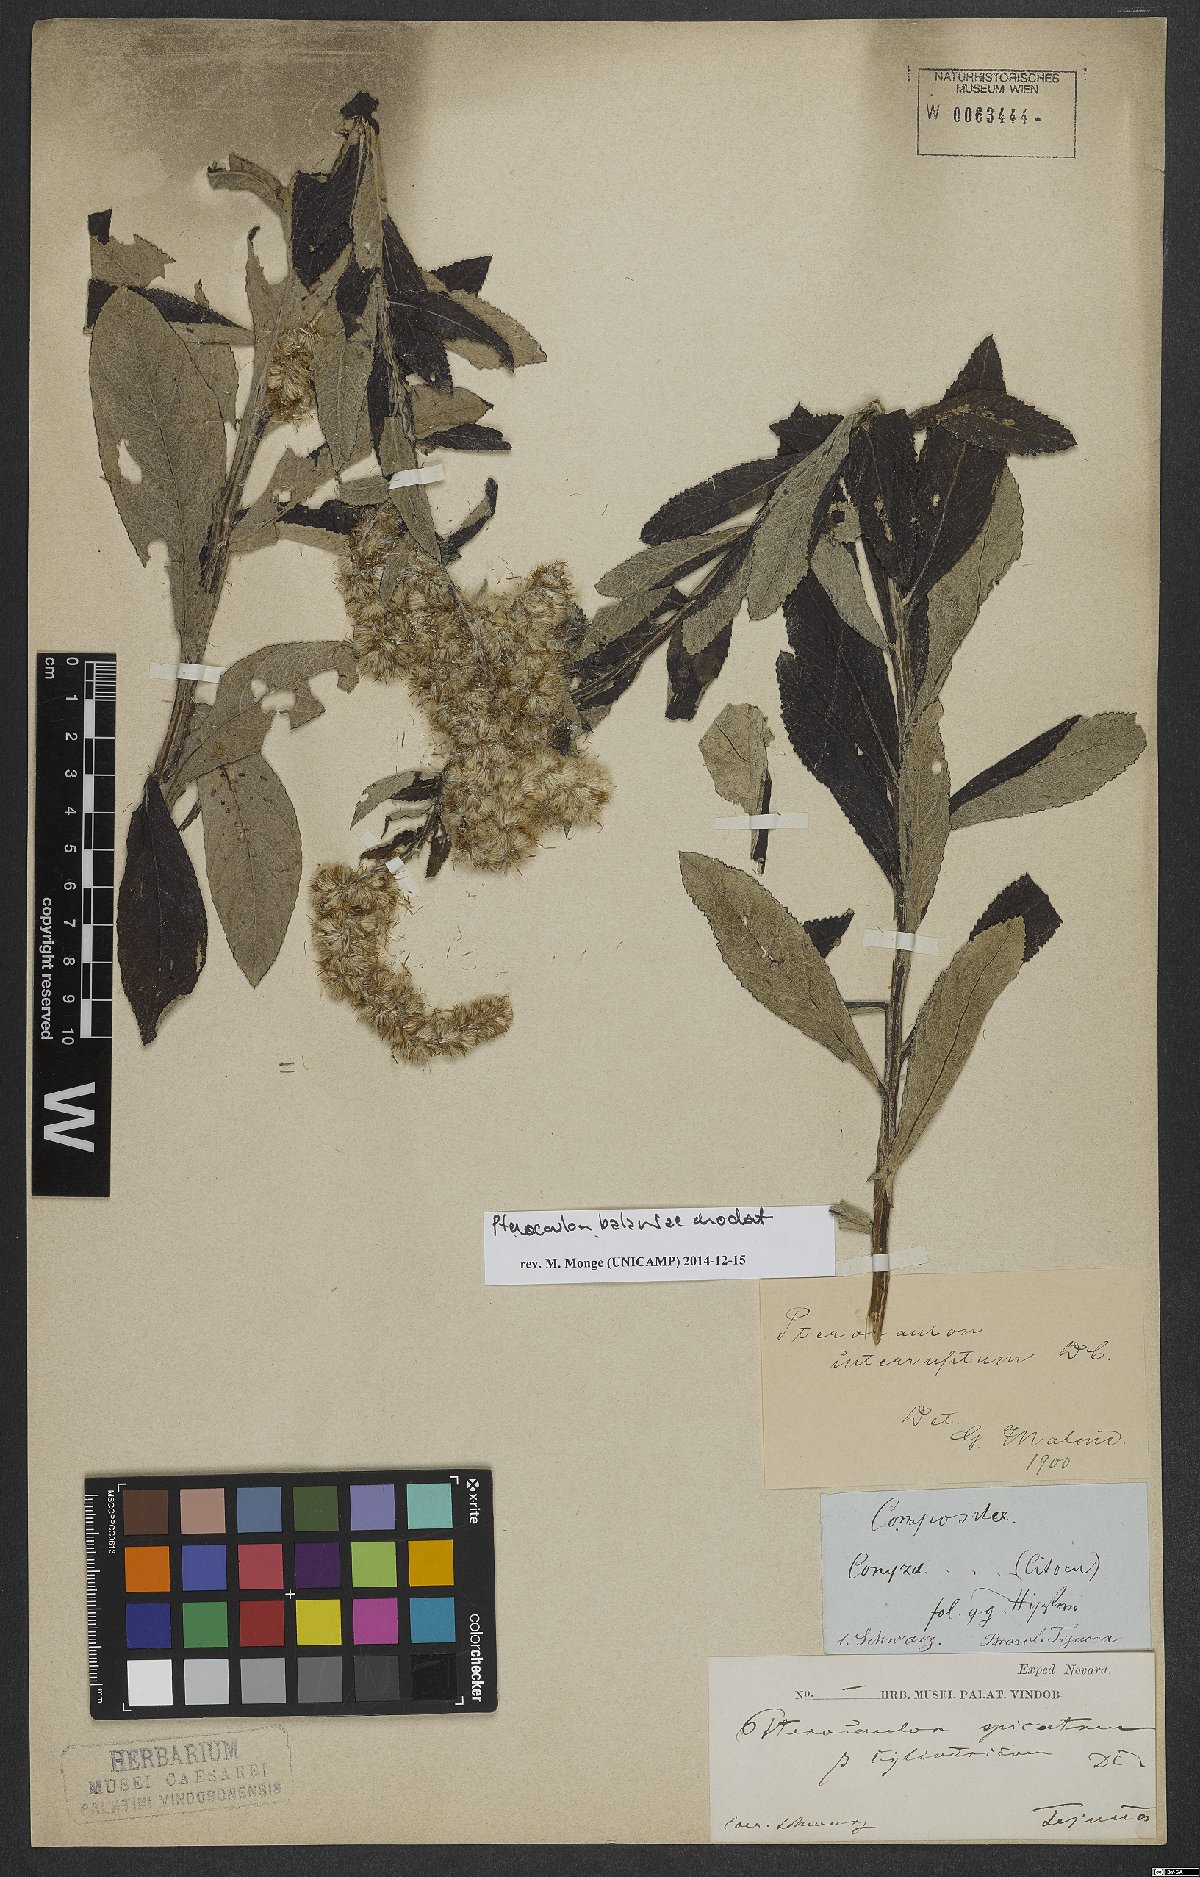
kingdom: Plantae
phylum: Tracheophyta
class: Magnoliopsida
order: Asterales
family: Asteraceae
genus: Pterocaulon
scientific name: Pterocaulon balansae
